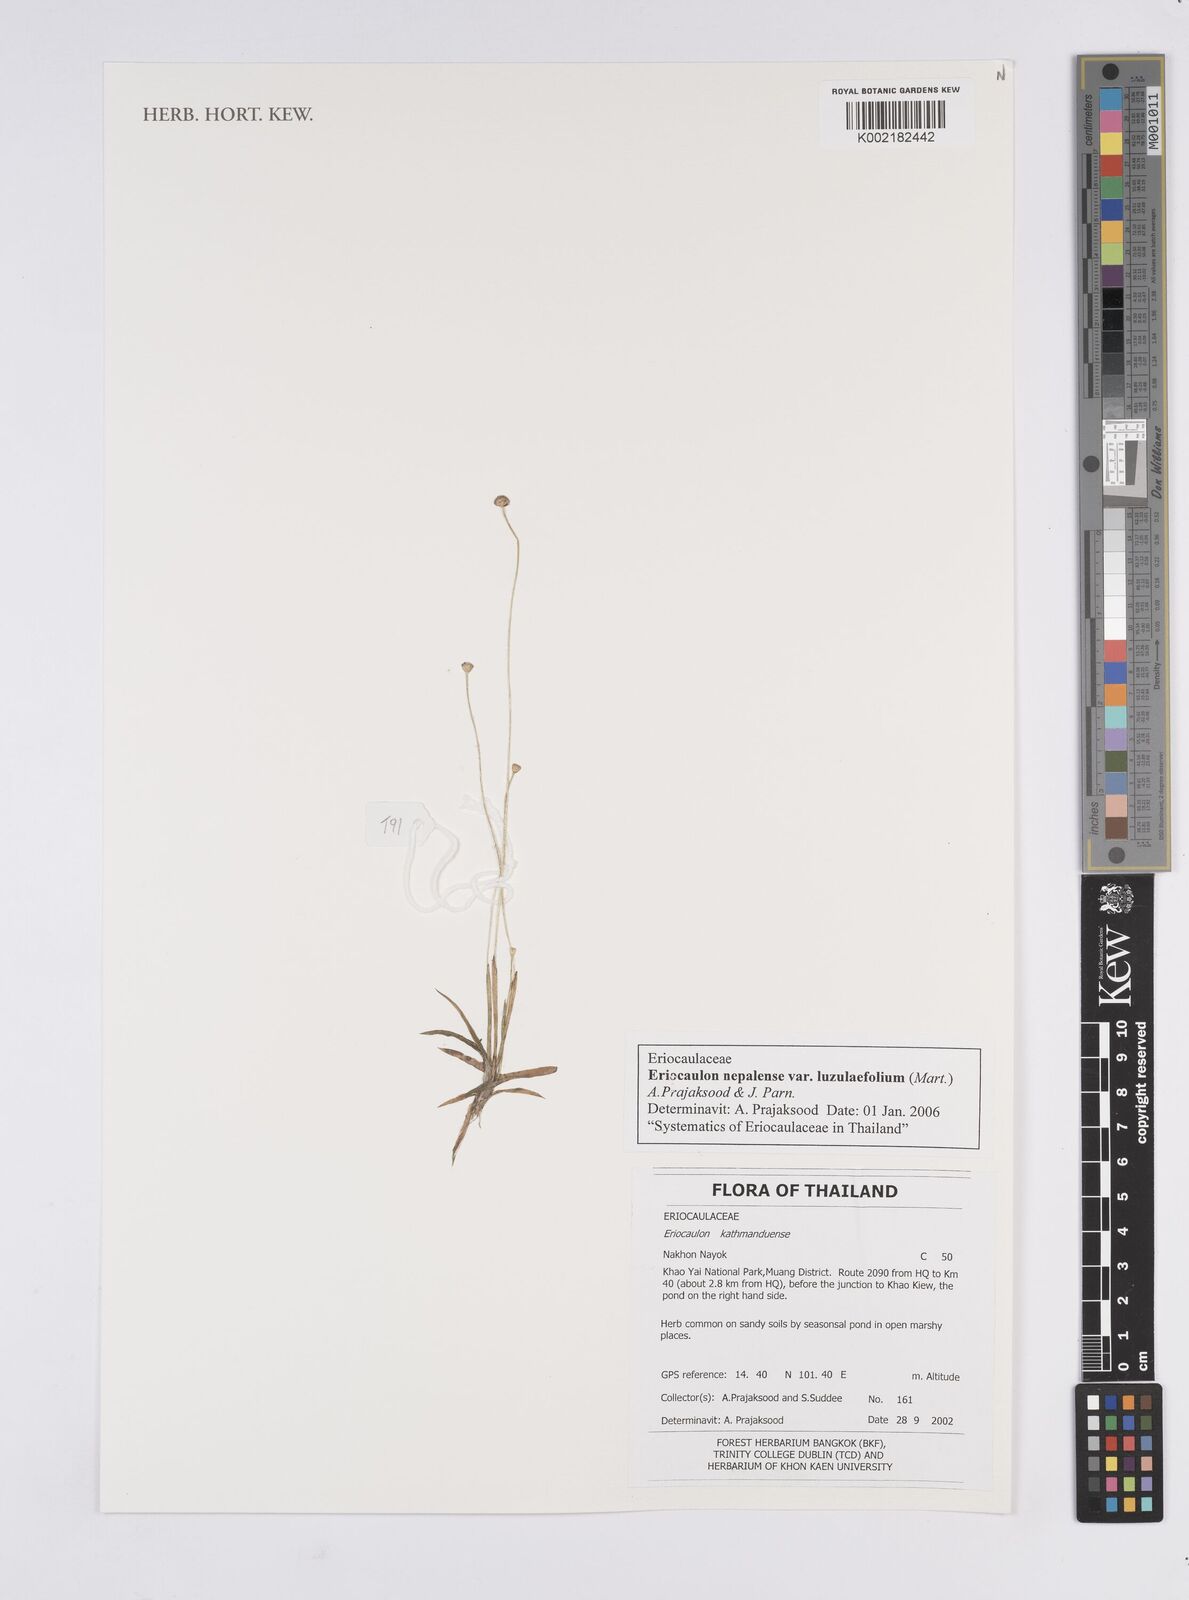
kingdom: Plantae
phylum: Tracheophyta
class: Liliopsida
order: Poales
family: Eriocaulaceae
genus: Eriocaulon
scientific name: Eriocaulon nepalense
